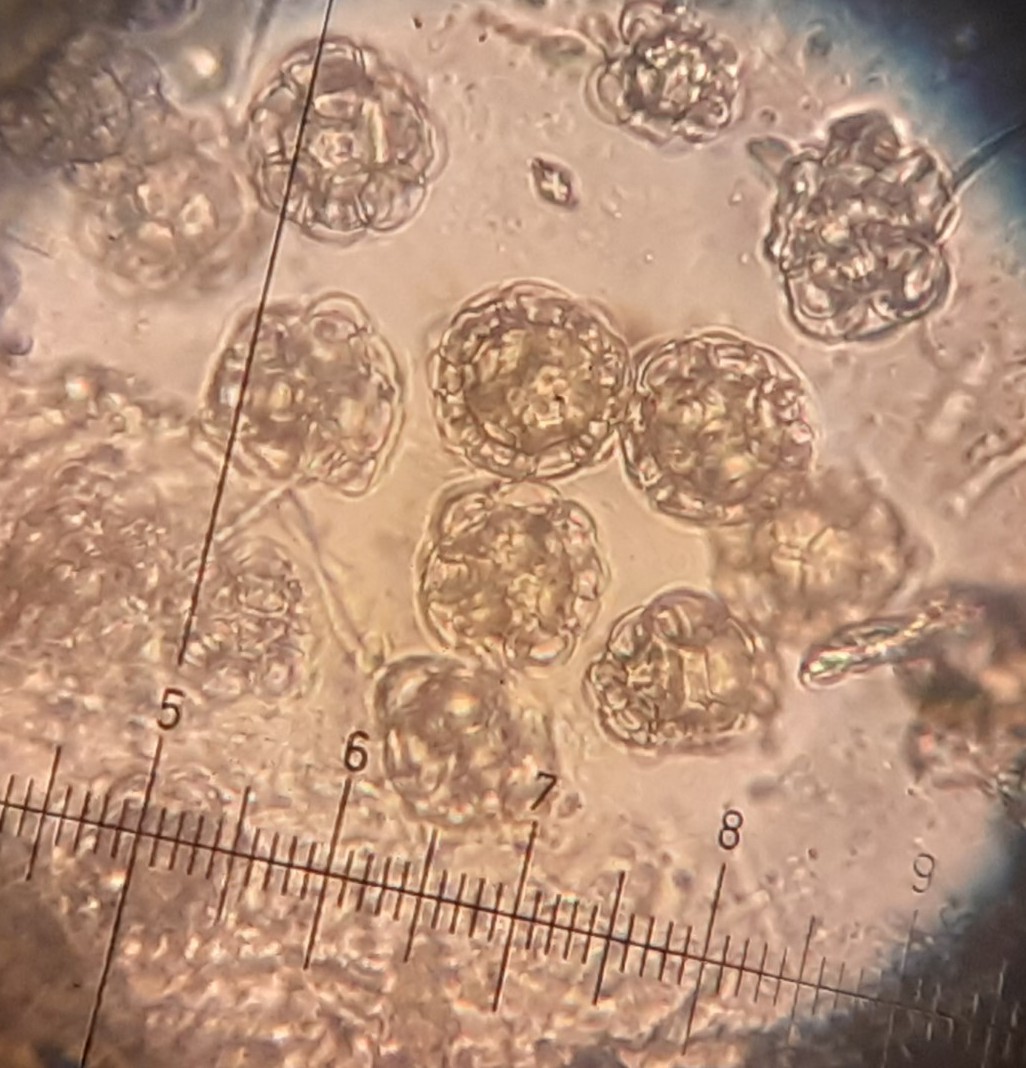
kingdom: Fungi
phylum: Ascomycota
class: Sordariomycetes
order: Hypocreales
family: Hypocreaceae
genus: Hypomyces
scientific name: Hypomyces papulasporae
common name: jordtunge-snylteskorpe
